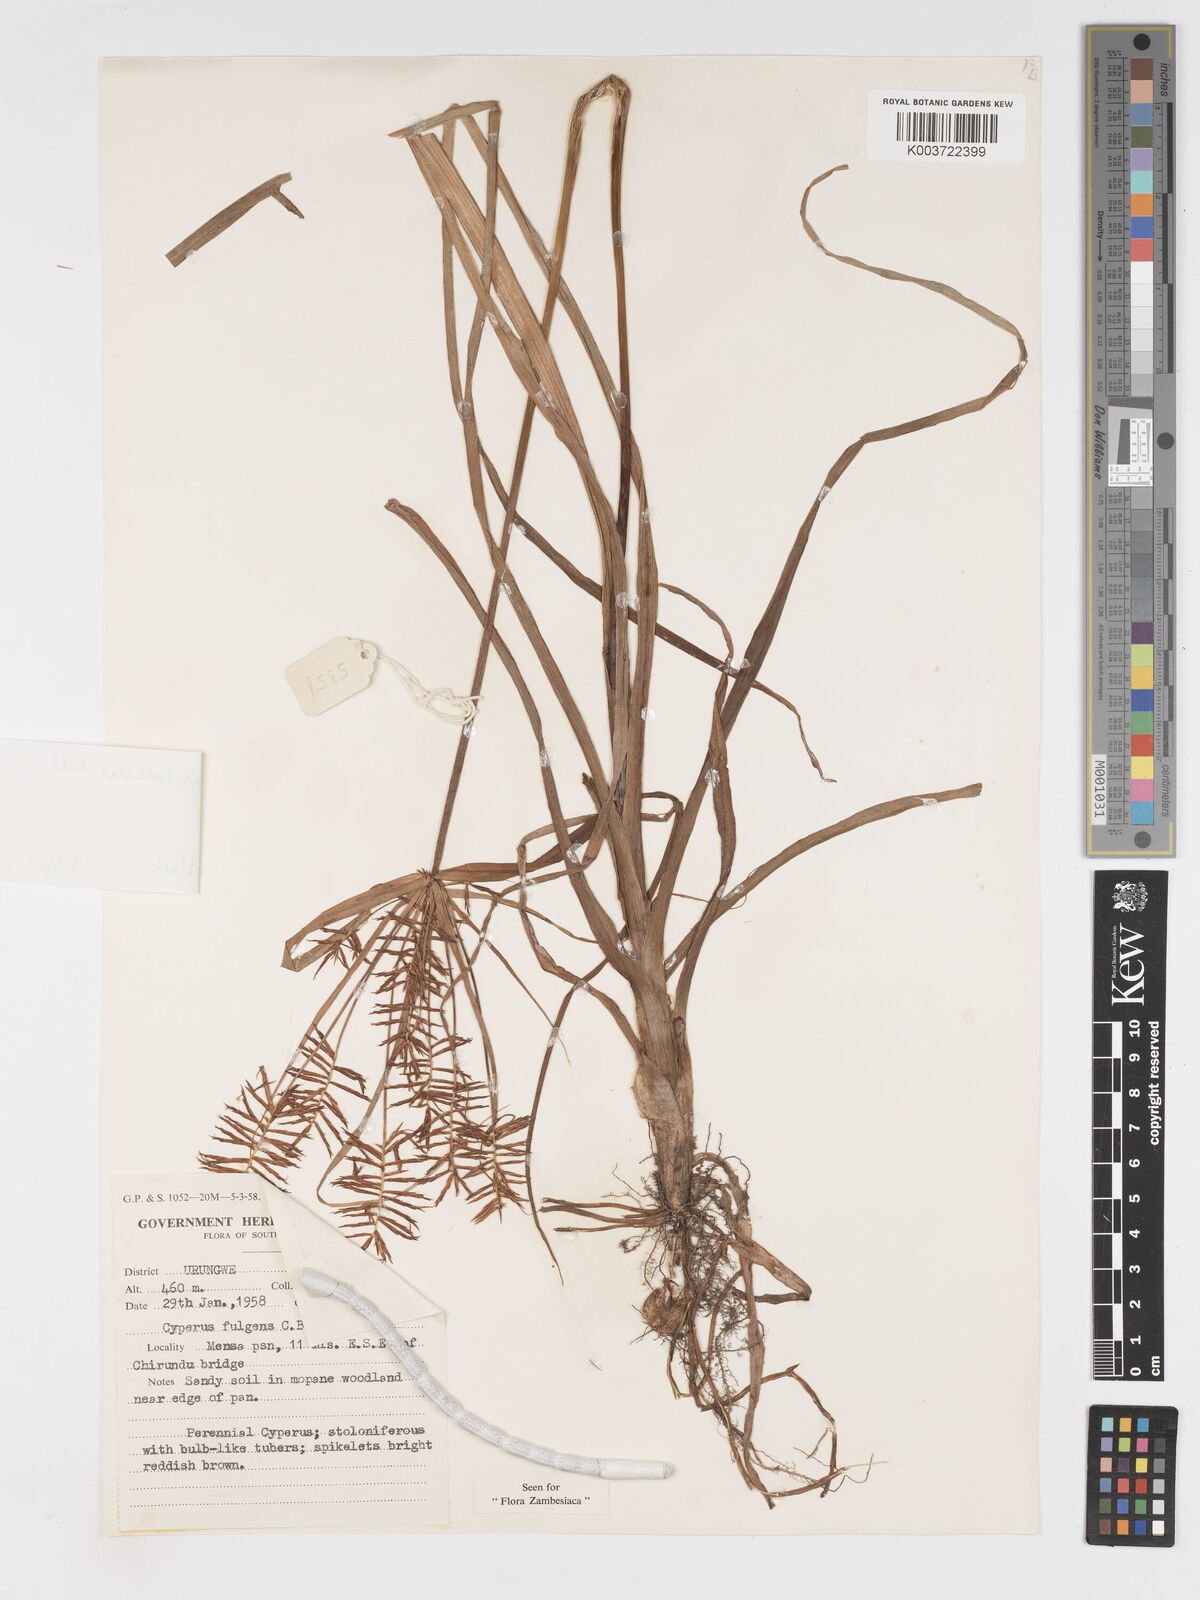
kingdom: Plantae
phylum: Tracheophyta
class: Liliopsida
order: Poales
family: Cyperaceae
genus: Cyperus
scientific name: Cyperus callistus
